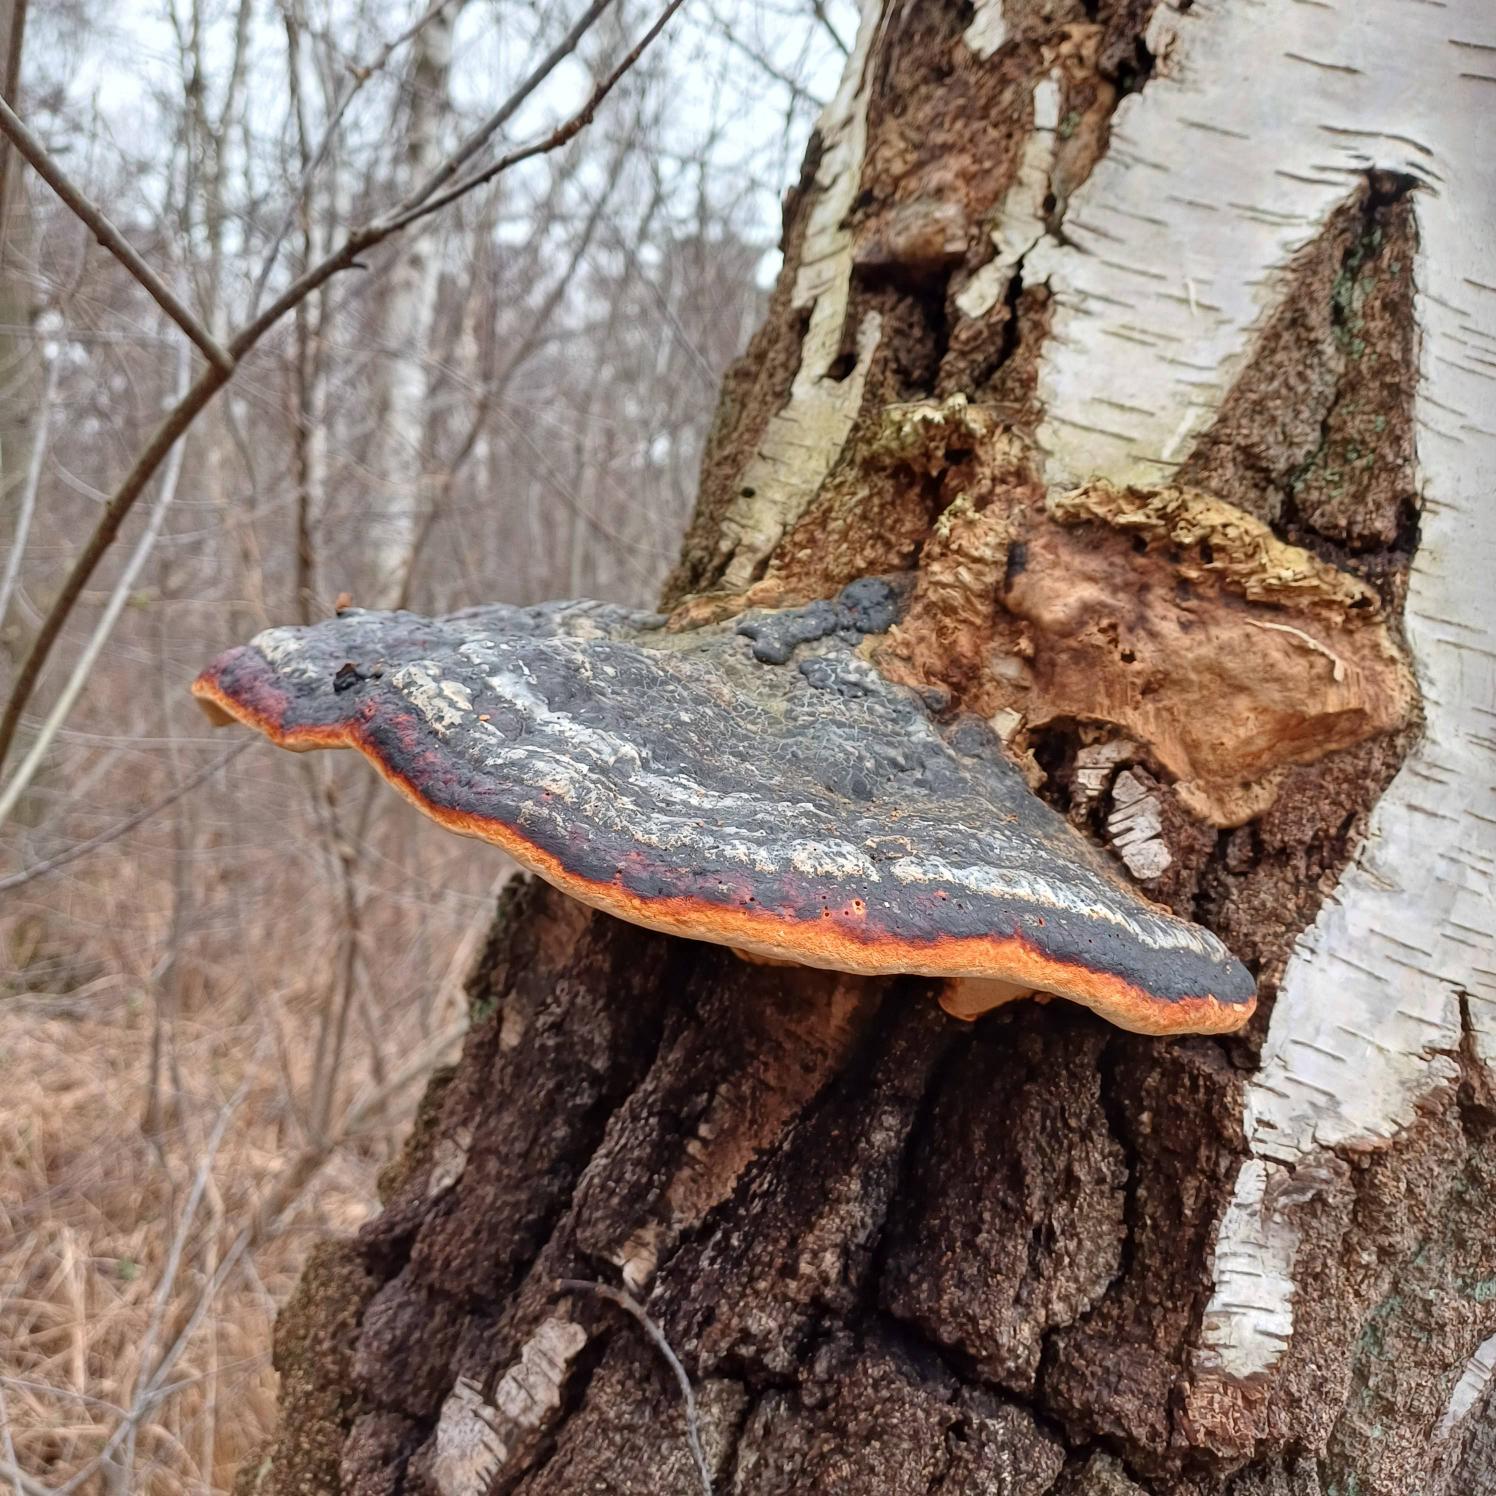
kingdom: Fungi
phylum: Basidiomycota
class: Agaricomycetes
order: Polyporales
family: Fomitopsidaceae
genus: Fomitopsis
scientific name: Fomitopsis pinicola
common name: Randbæltet hovporesvamp
